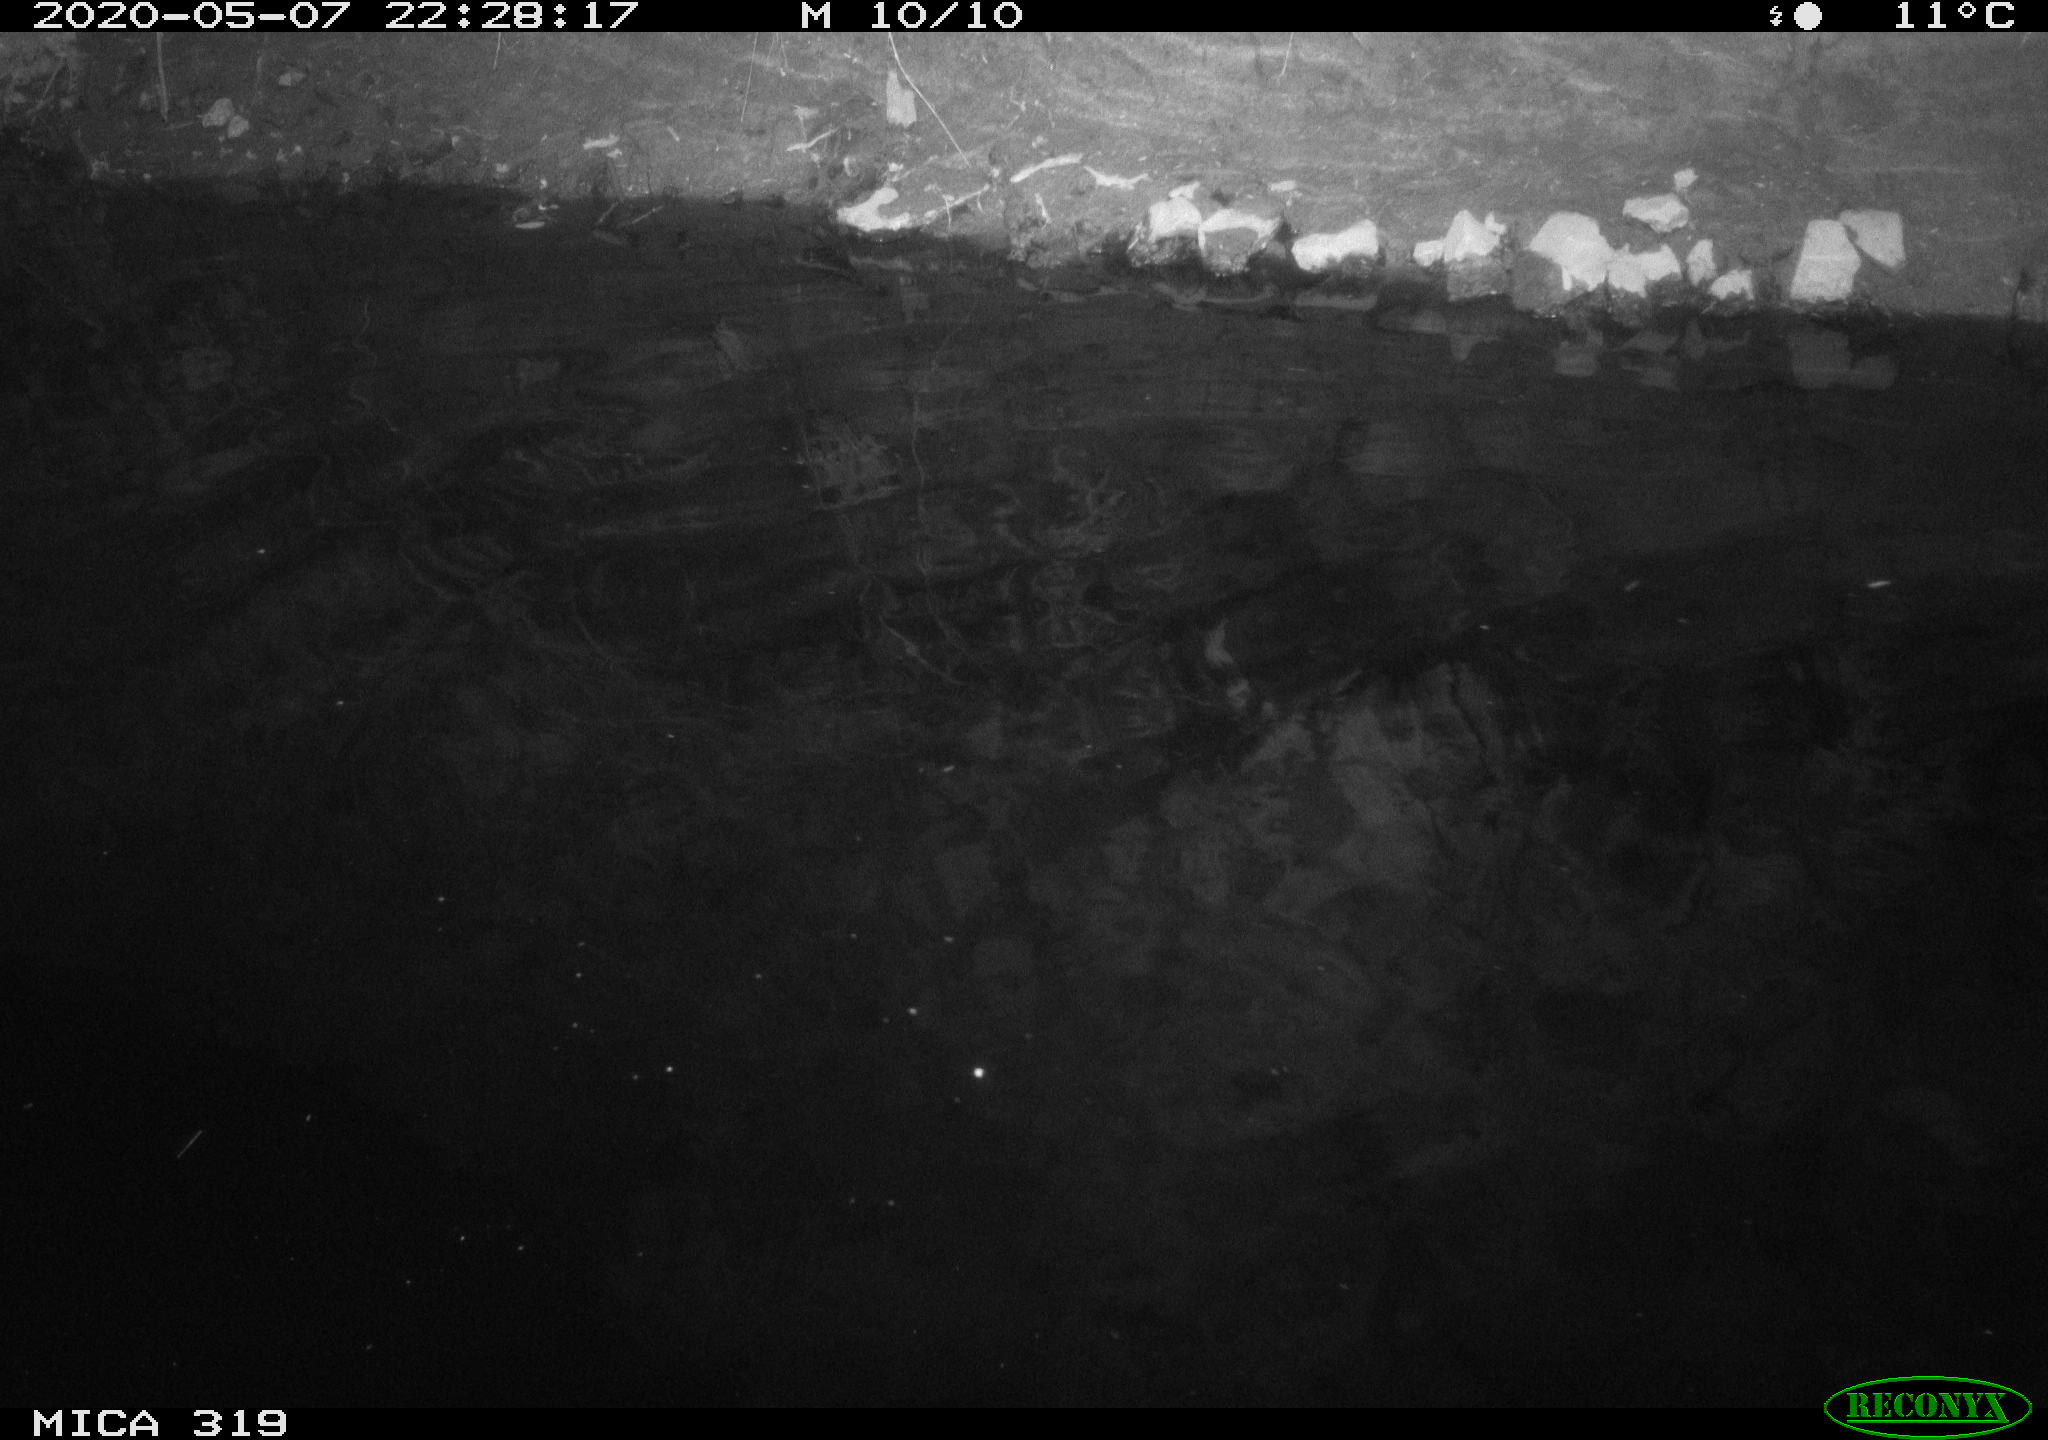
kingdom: Animalia
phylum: Chordata
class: Aves
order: Anseriformes
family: Anatidae
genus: Anas
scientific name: Anas platyrhynchos
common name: Mallard
